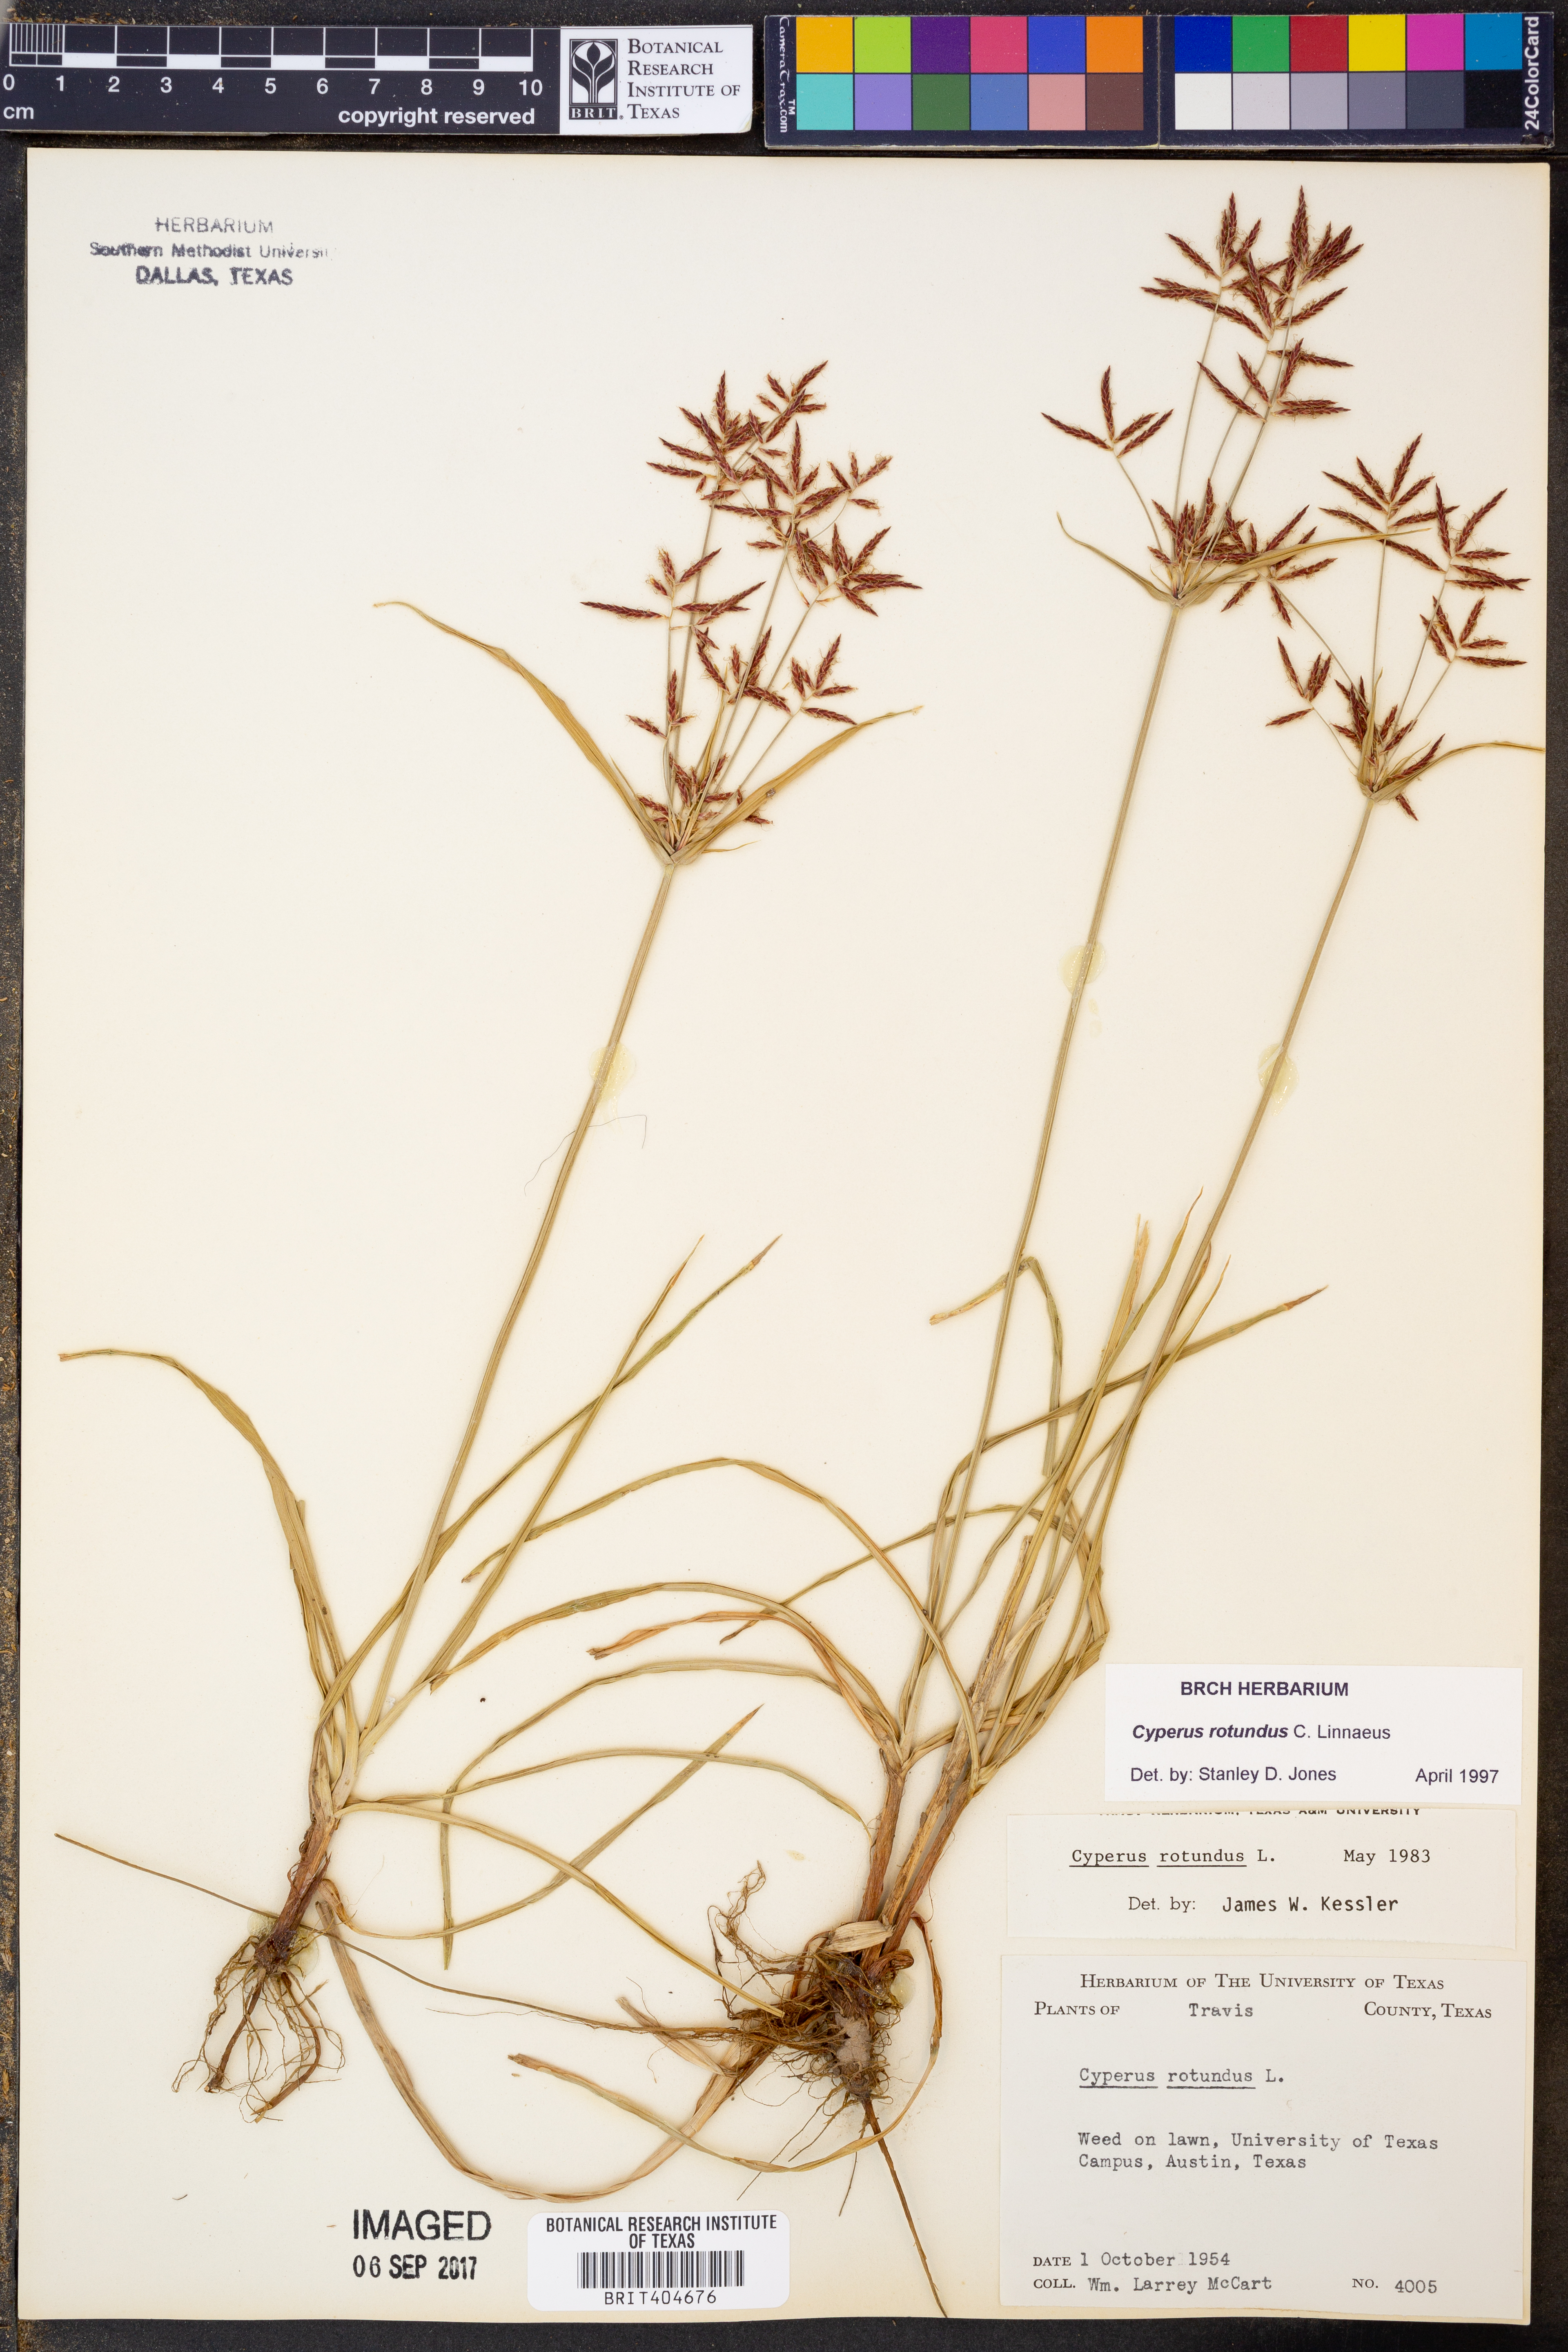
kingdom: Plantae
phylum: Tracheophyta
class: Liliopsida
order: Poales
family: Cyperaceae
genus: Cyperus
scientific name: Cyperus rotundus
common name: Nutgrass
